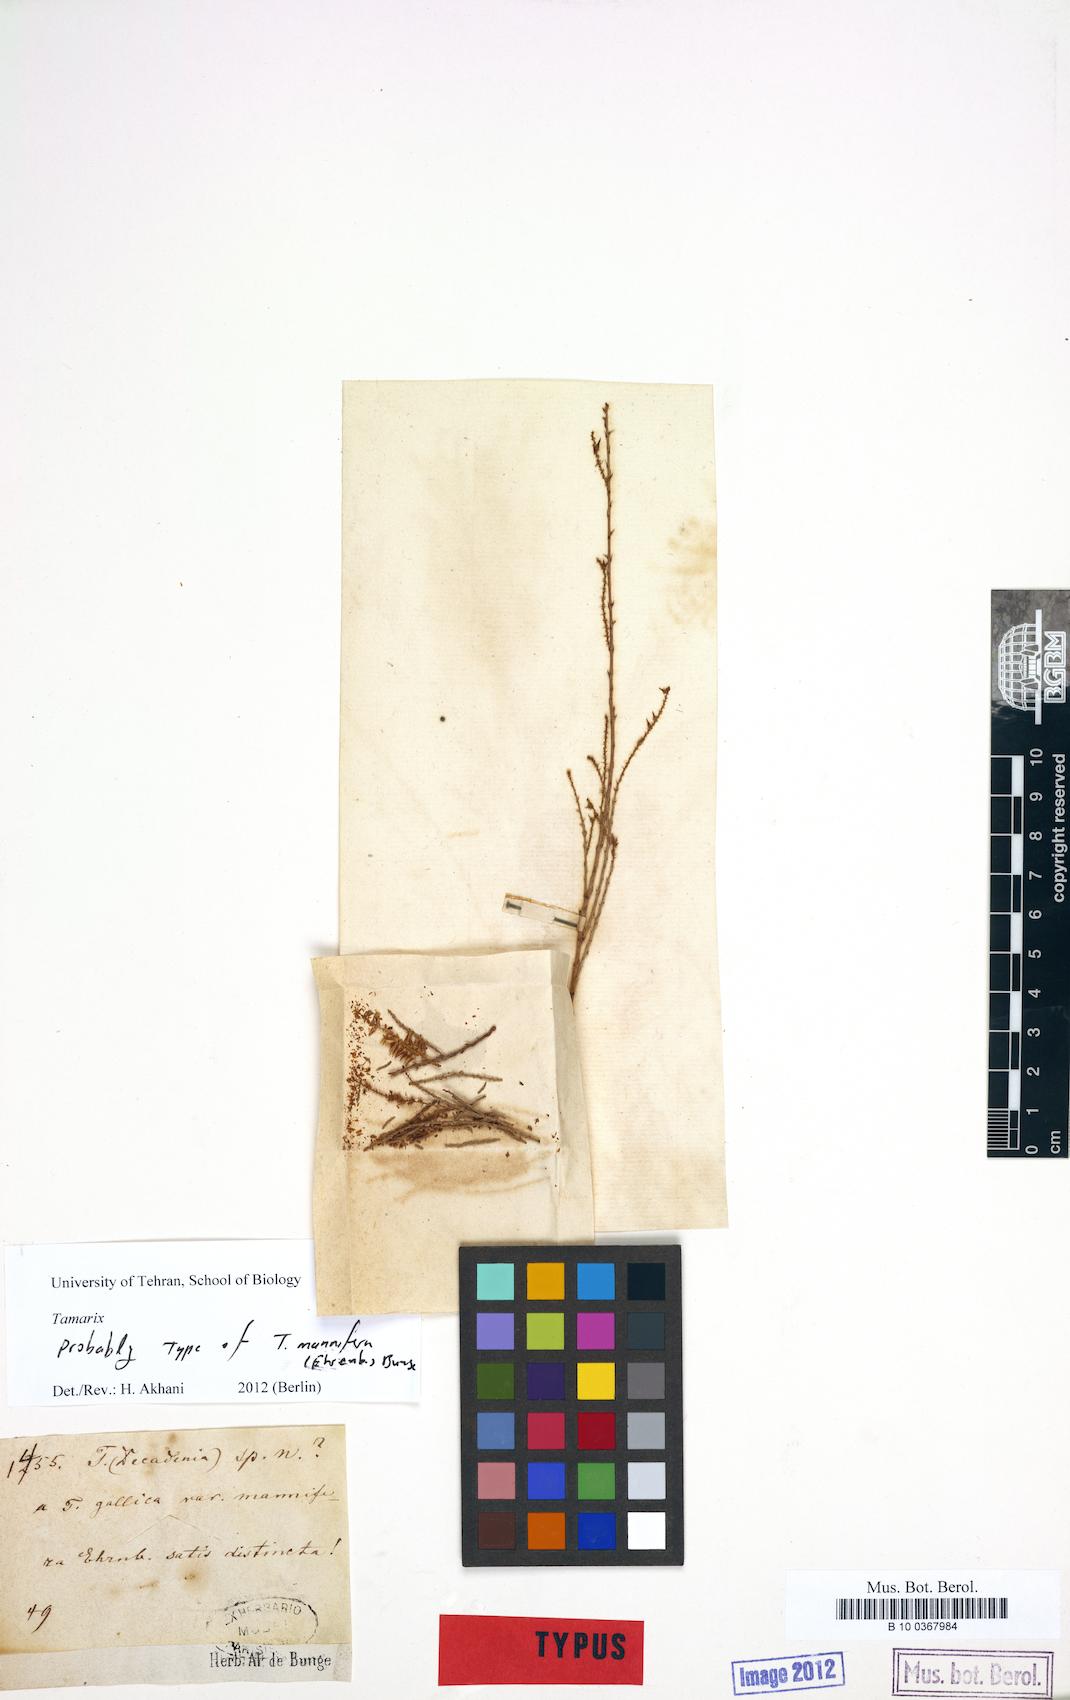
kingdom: Plantae
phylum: Tracheophyta
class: Magnoliopsida
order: Caryophyllales
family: Tamaricaceae
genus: Tamarix
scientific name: Tamarix gallica
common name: Tamarisk
